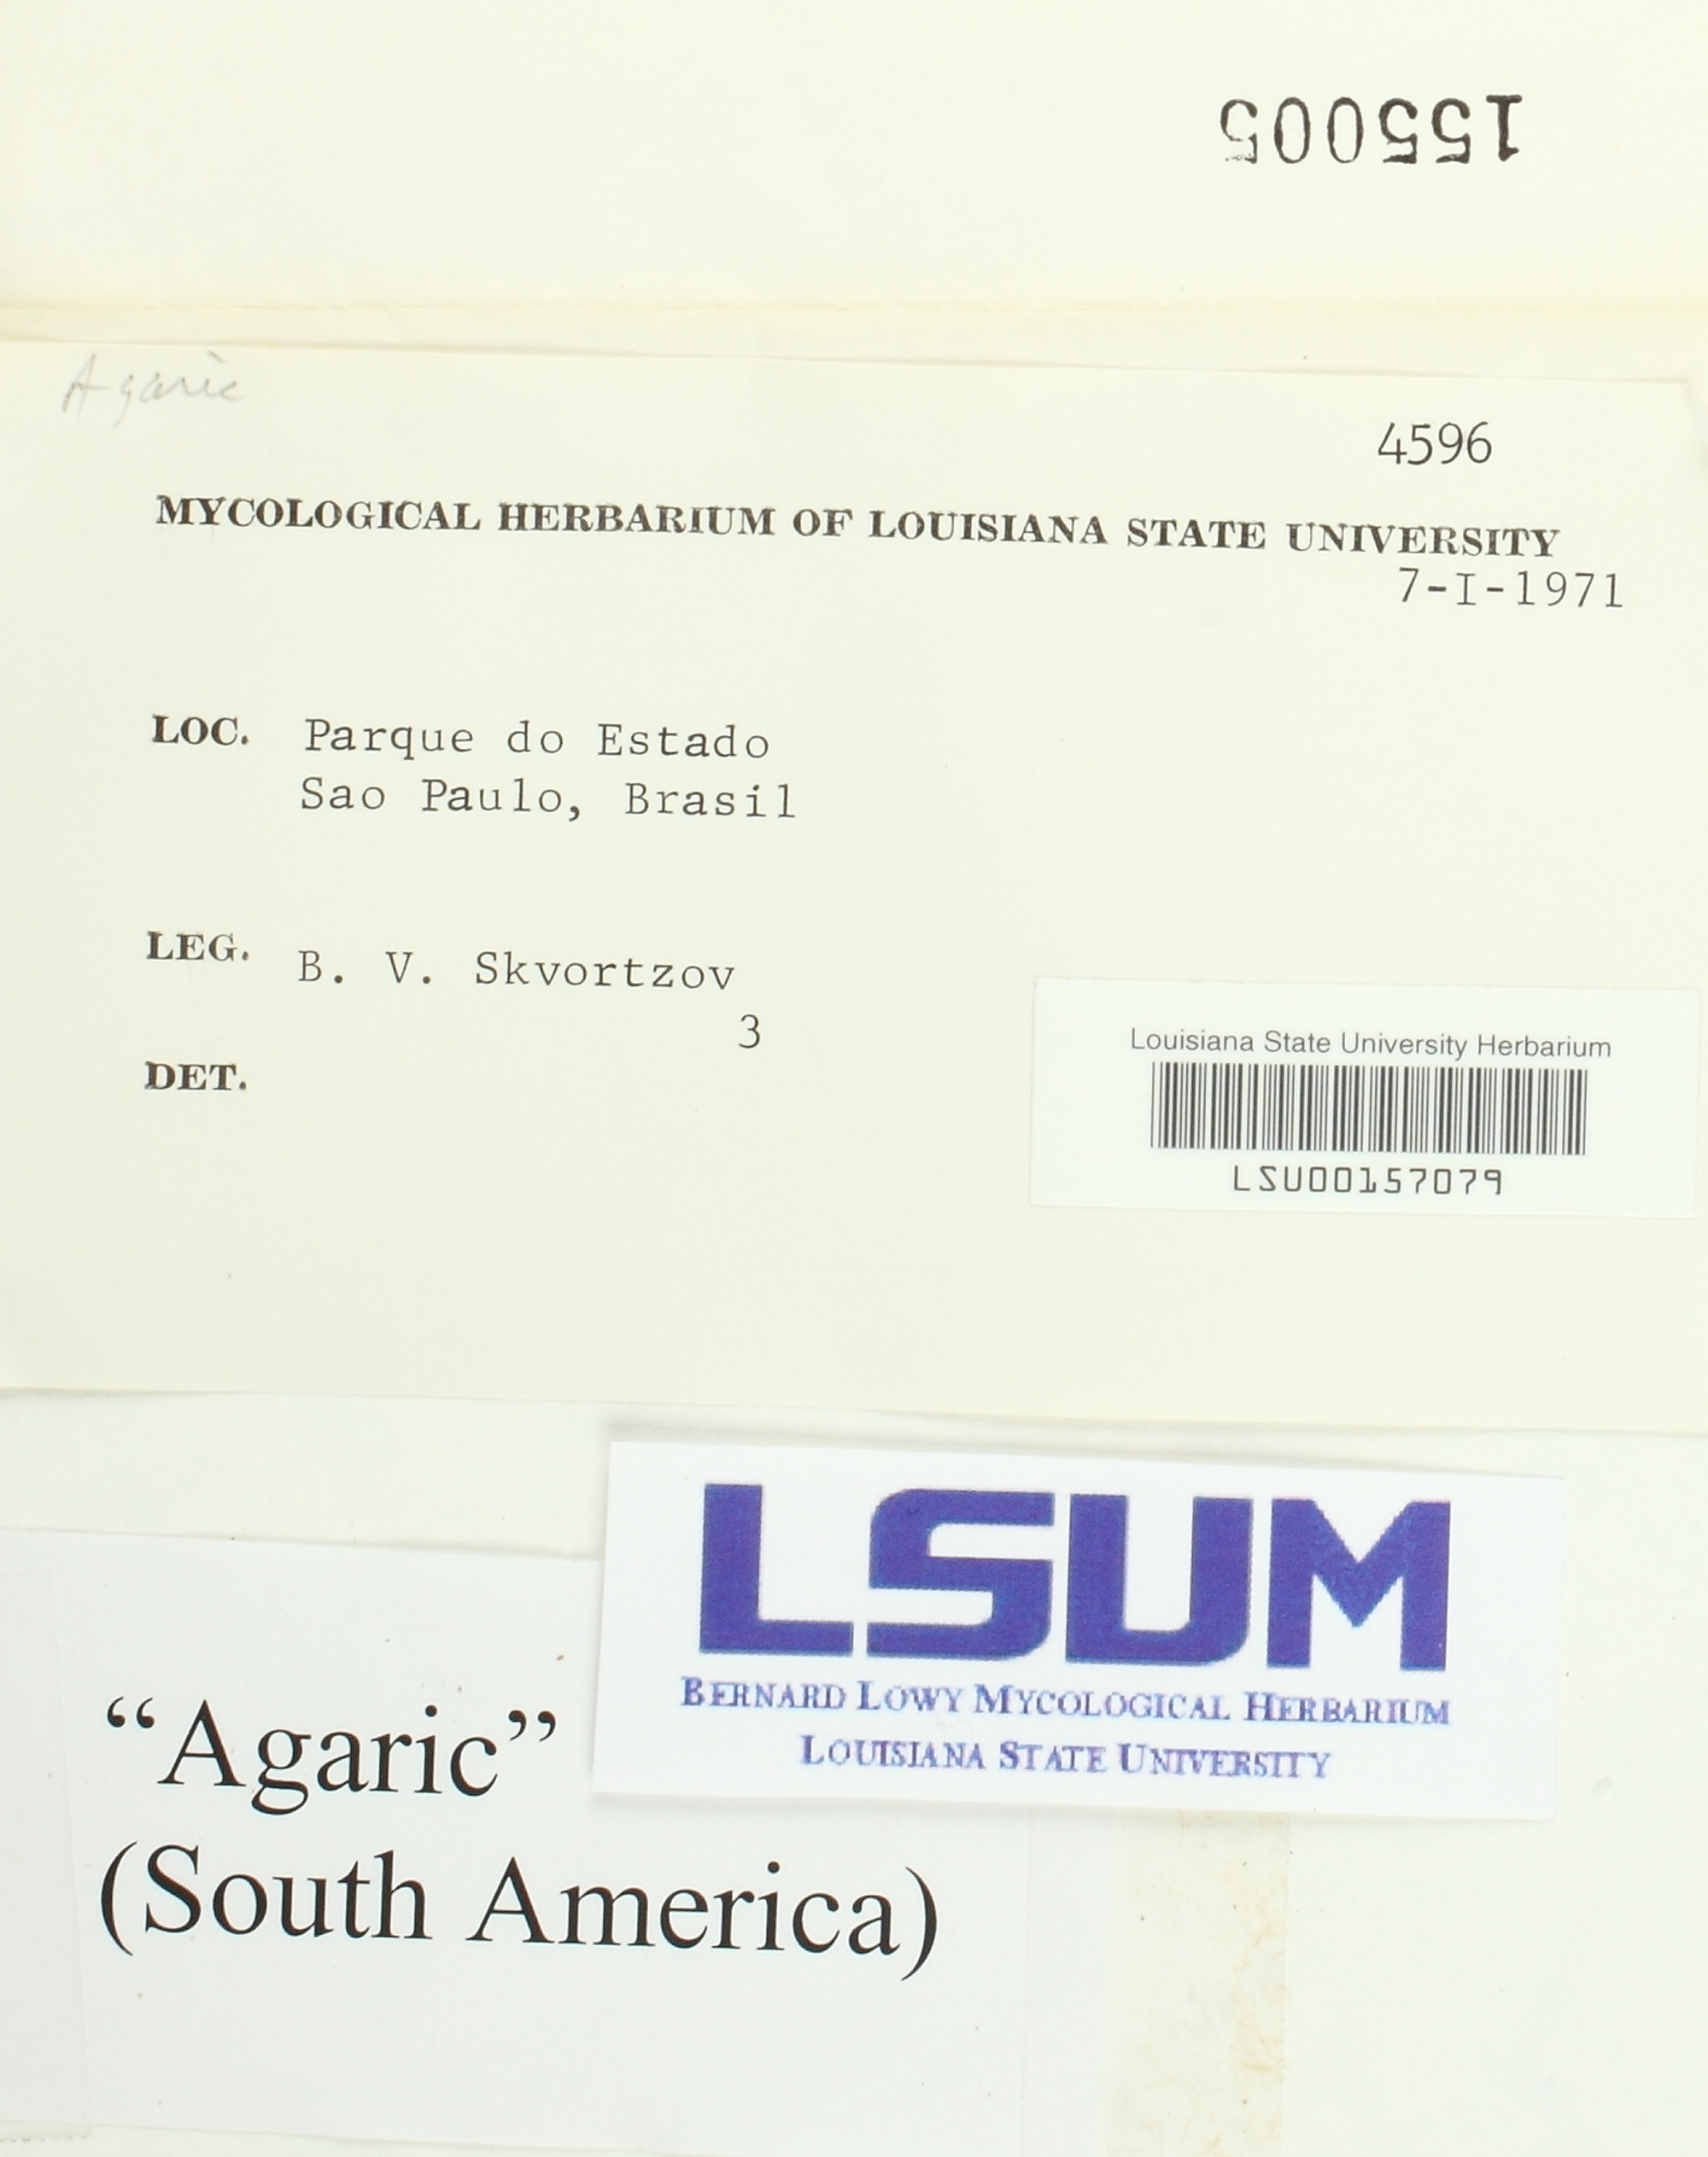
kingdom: Fungi
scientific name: Fungi
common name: Fungi
